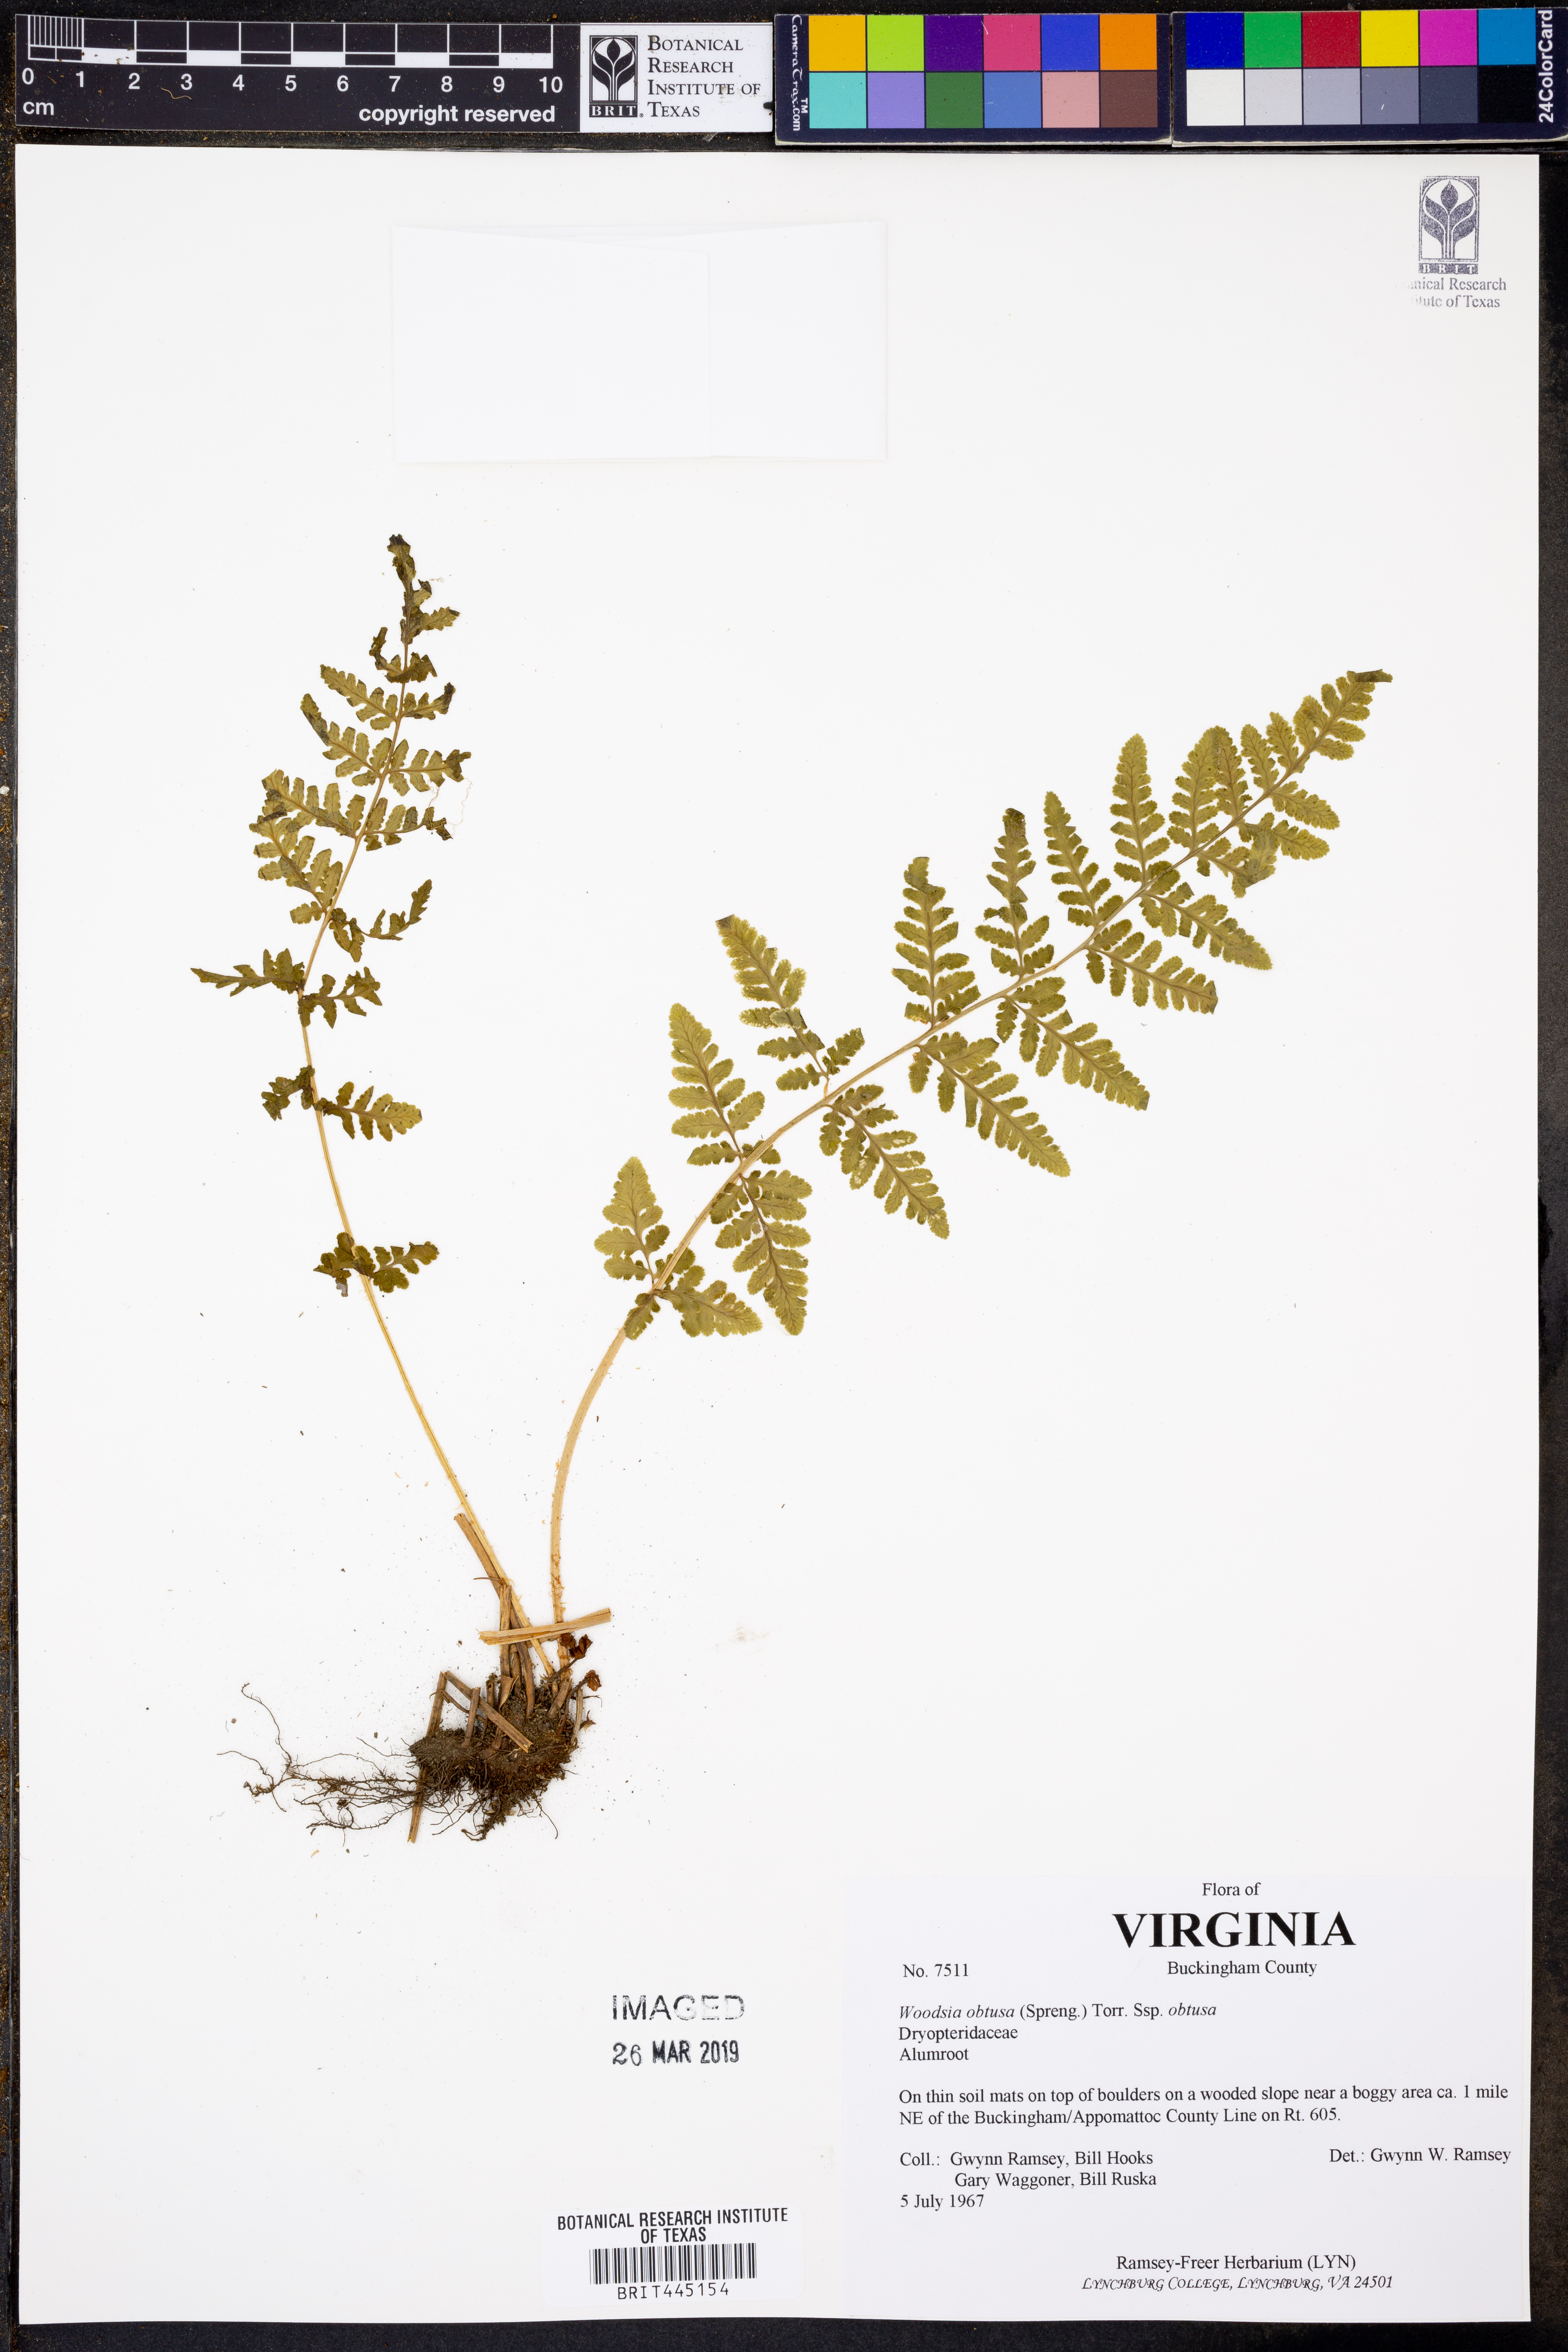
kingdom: Plantae
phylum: Tracheophyta
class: Polypodiopsida
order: Polypodiales
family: Woodsiaceae
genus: Physematium
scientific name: Physematium obtusum
